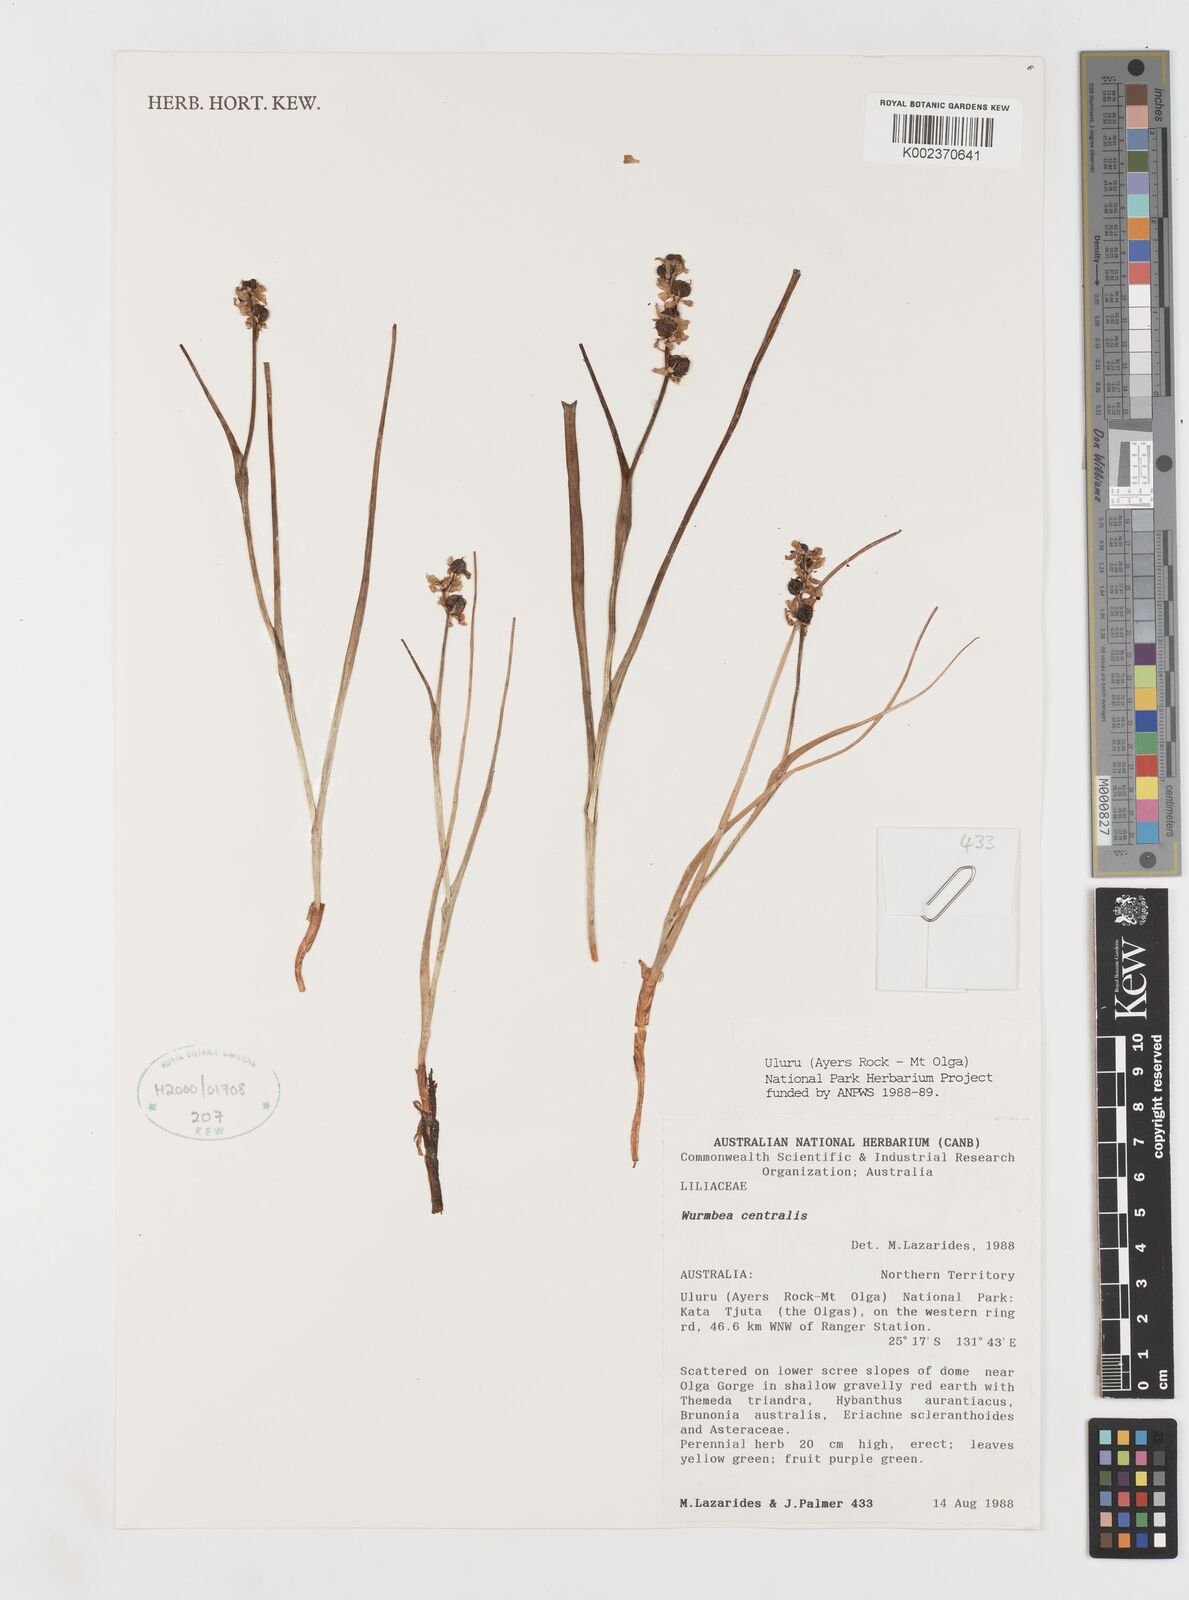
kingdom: Plantae
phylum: Tracheophyta
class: Liliopsida
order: Liliales
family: Colchicaceae
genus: Wurmbea
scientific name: Wurmbea centralis
